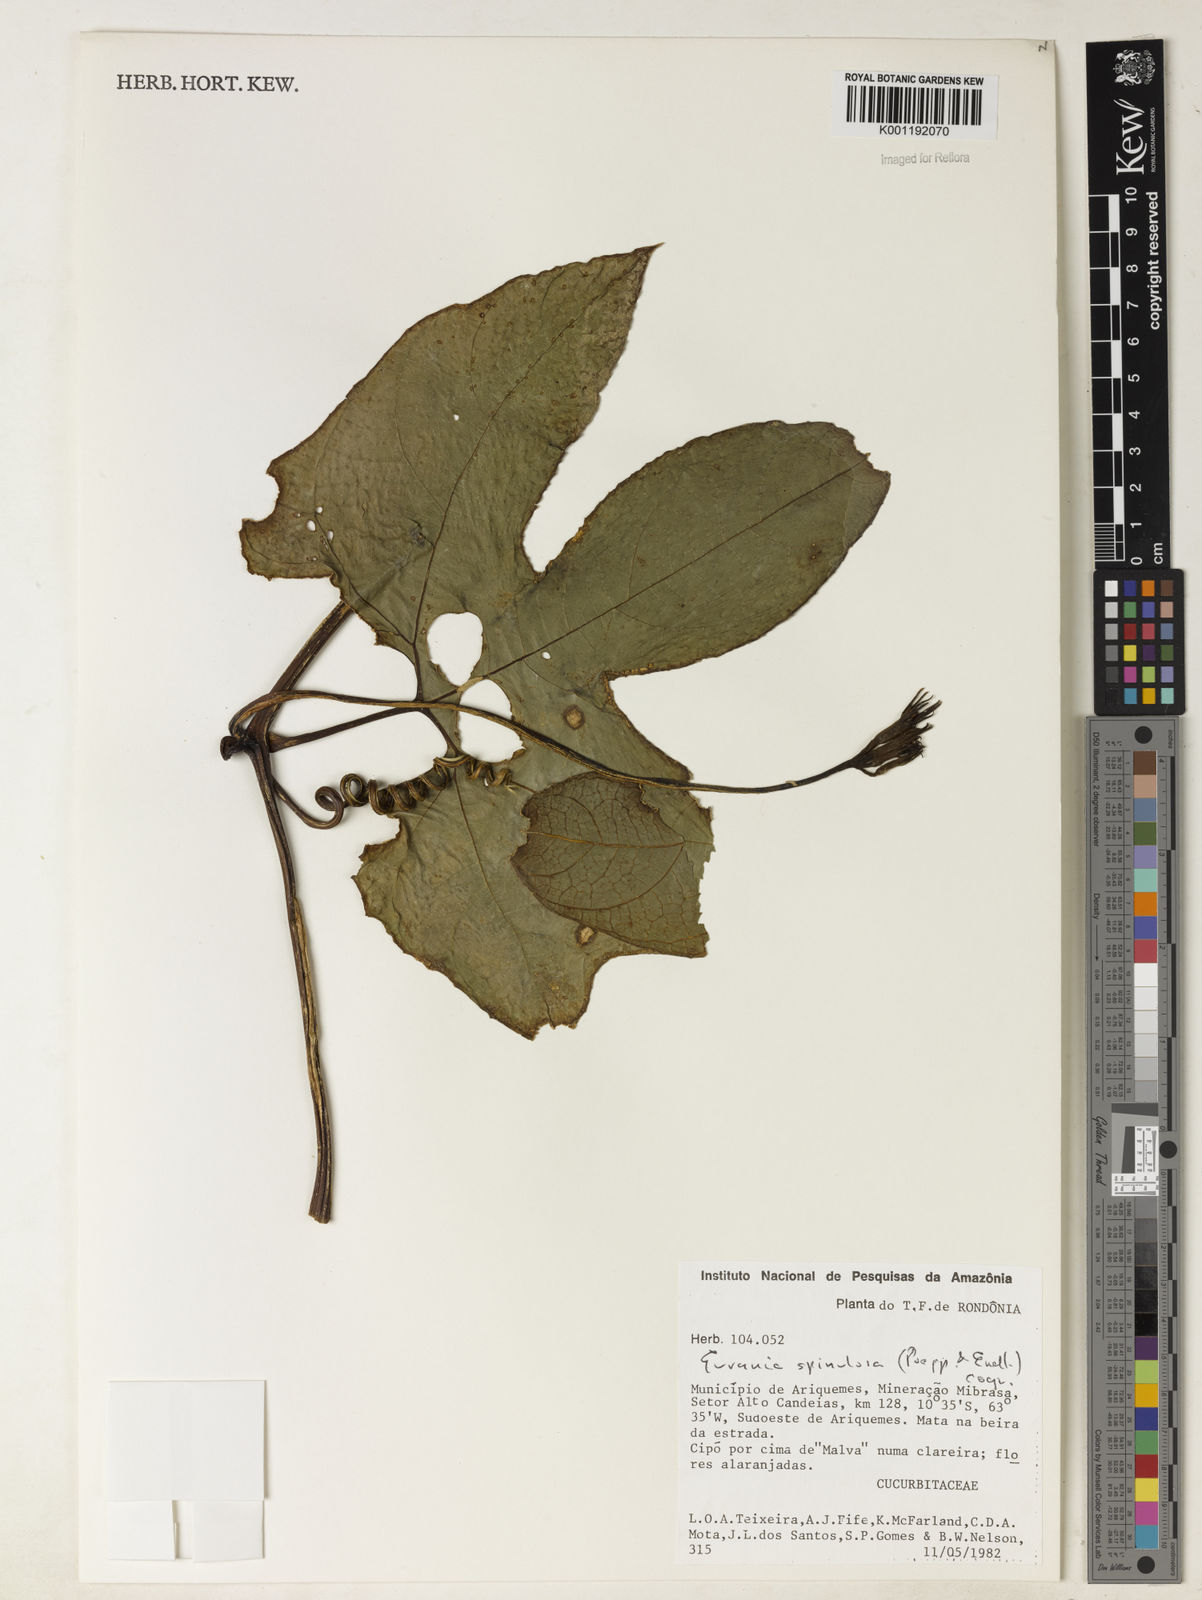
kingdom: Plantae
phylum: Tracheophyta
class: Magnoliopsida
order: Cucurbitales
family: Cucurbitaceae
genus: Gurania
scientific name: Gurania lobata
